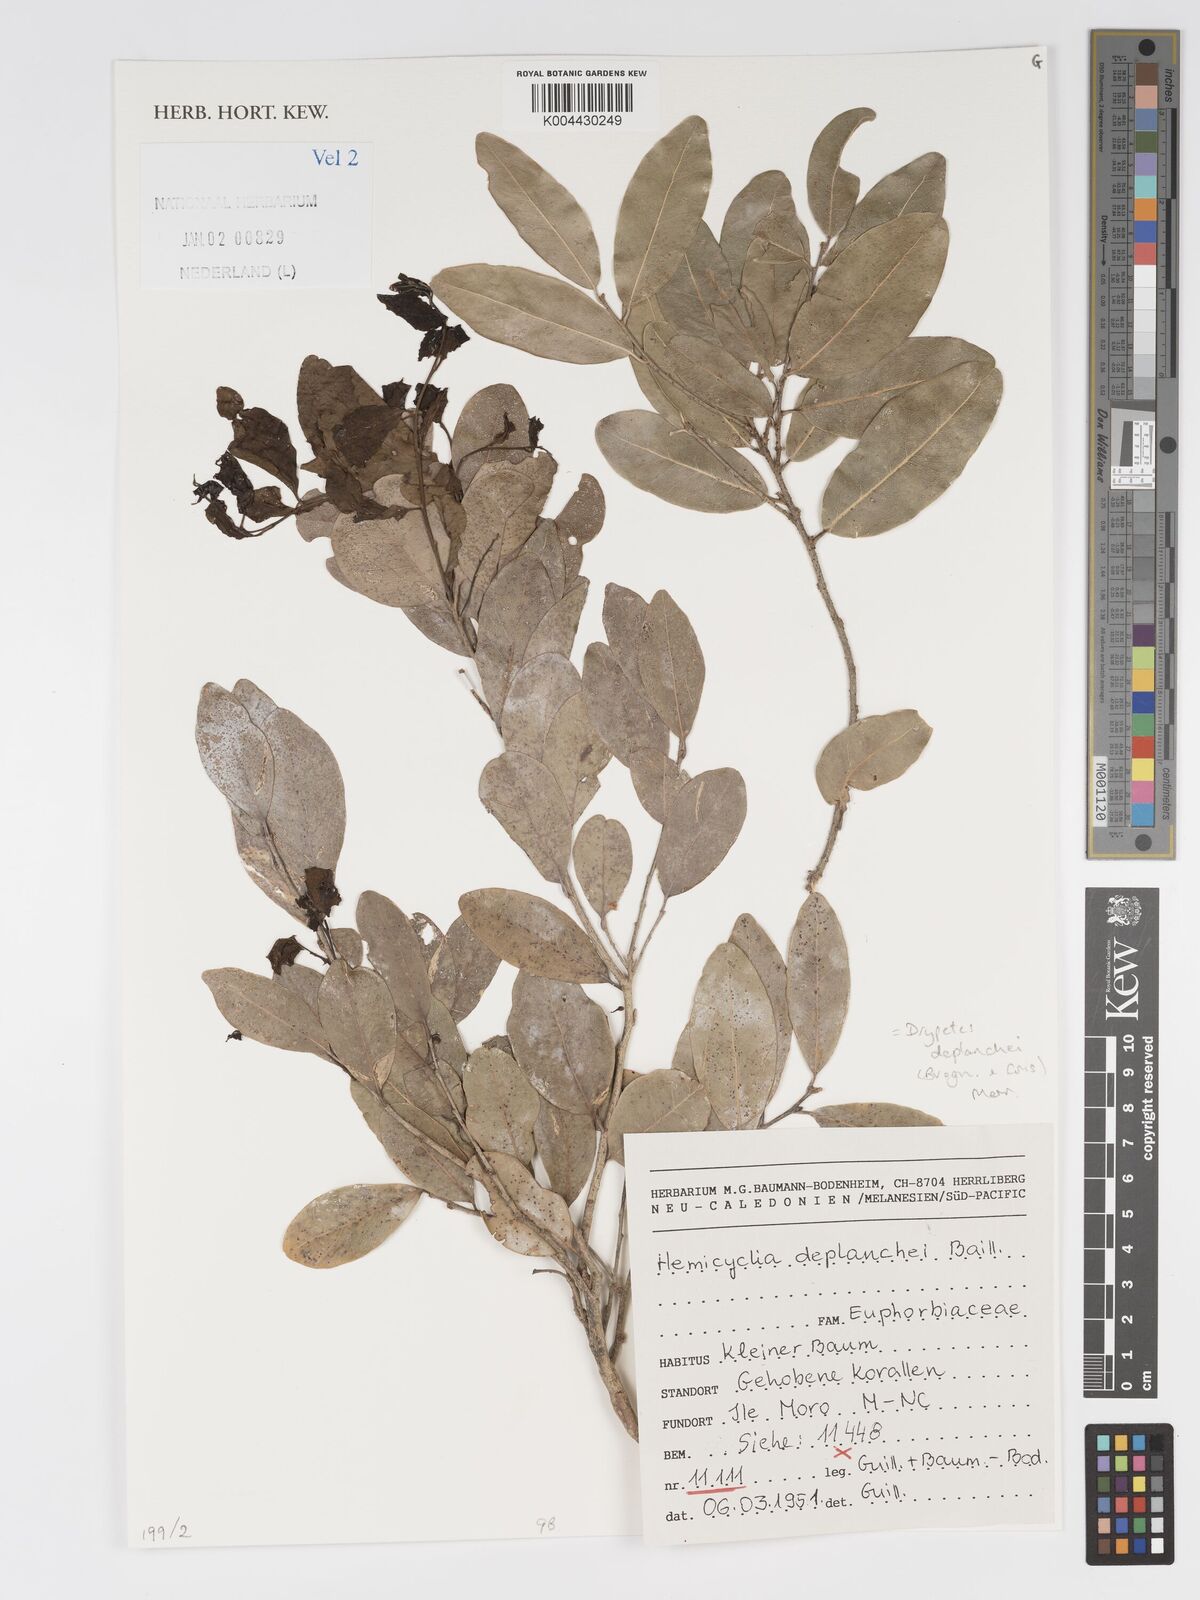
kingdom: Plantae
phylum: Tracheophyta
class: Magnoliopsida
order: Malpighiales
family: Putranjivaceae
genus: Drypetes
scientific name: Drypetes deplanchei
